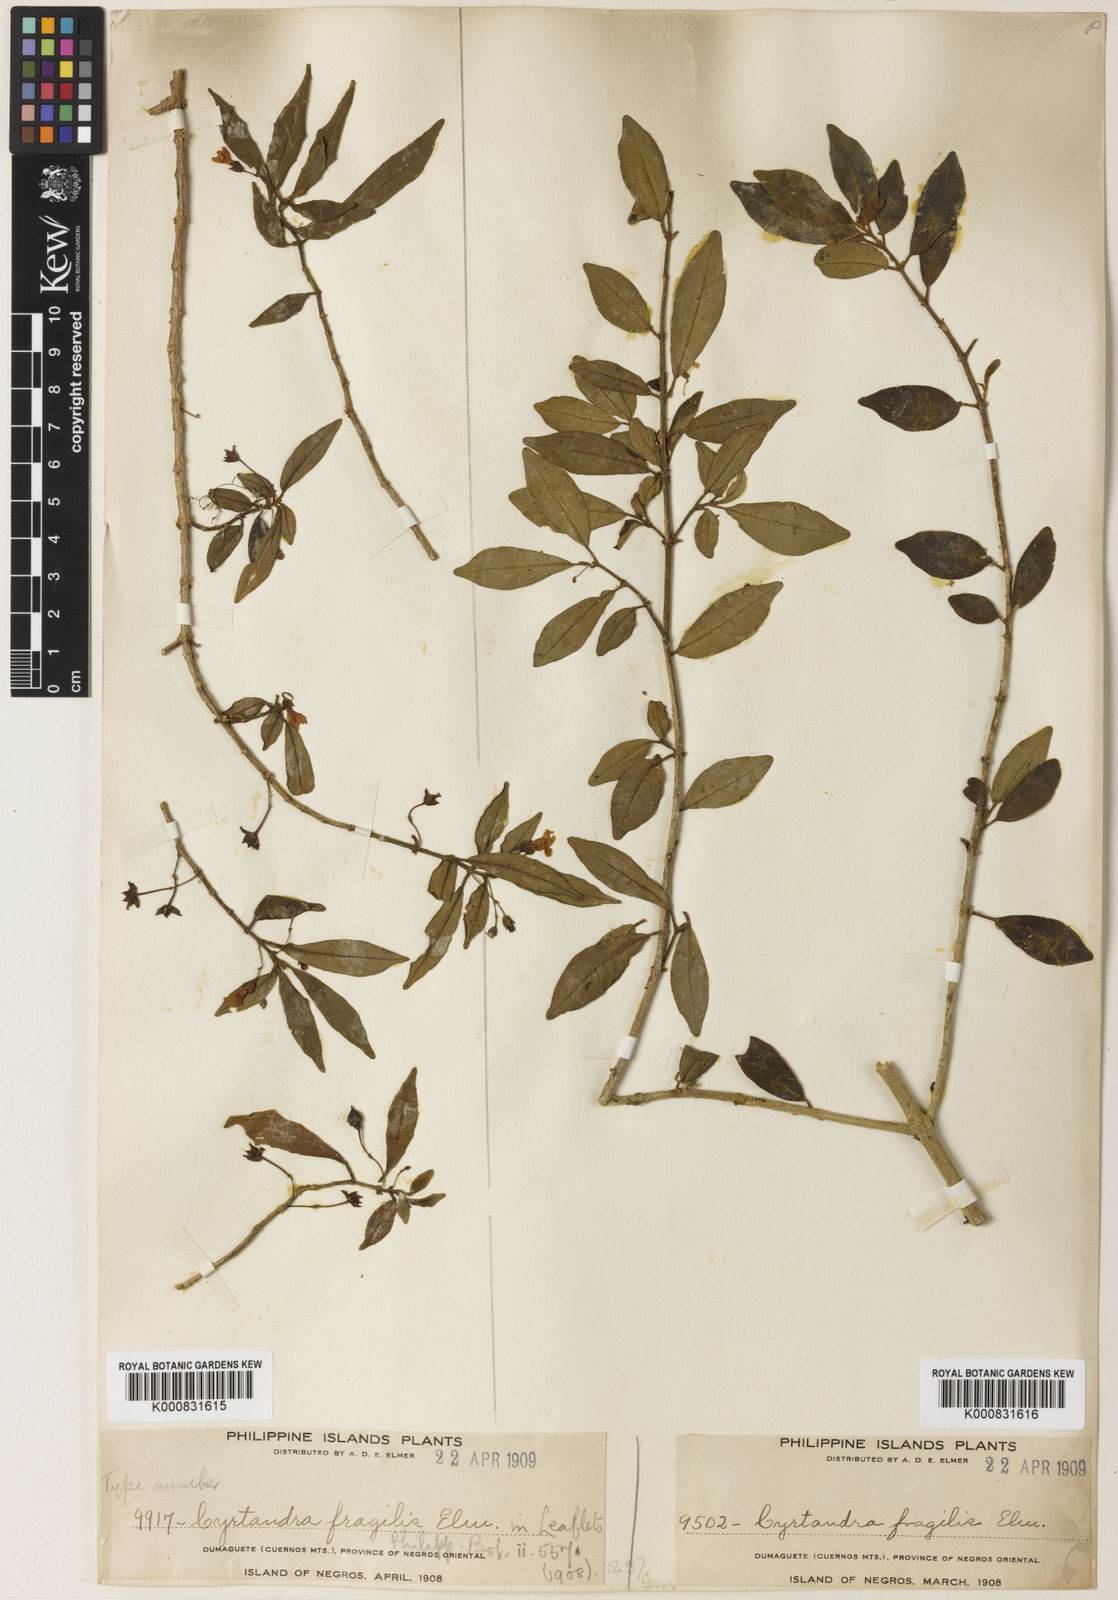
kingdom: Plantae
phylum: Tracheophyta
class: Magnoliopsida
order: Lamiales
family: Gesneriaceae
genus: Cyrtandra
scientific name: Cyrtandra parvifolia
